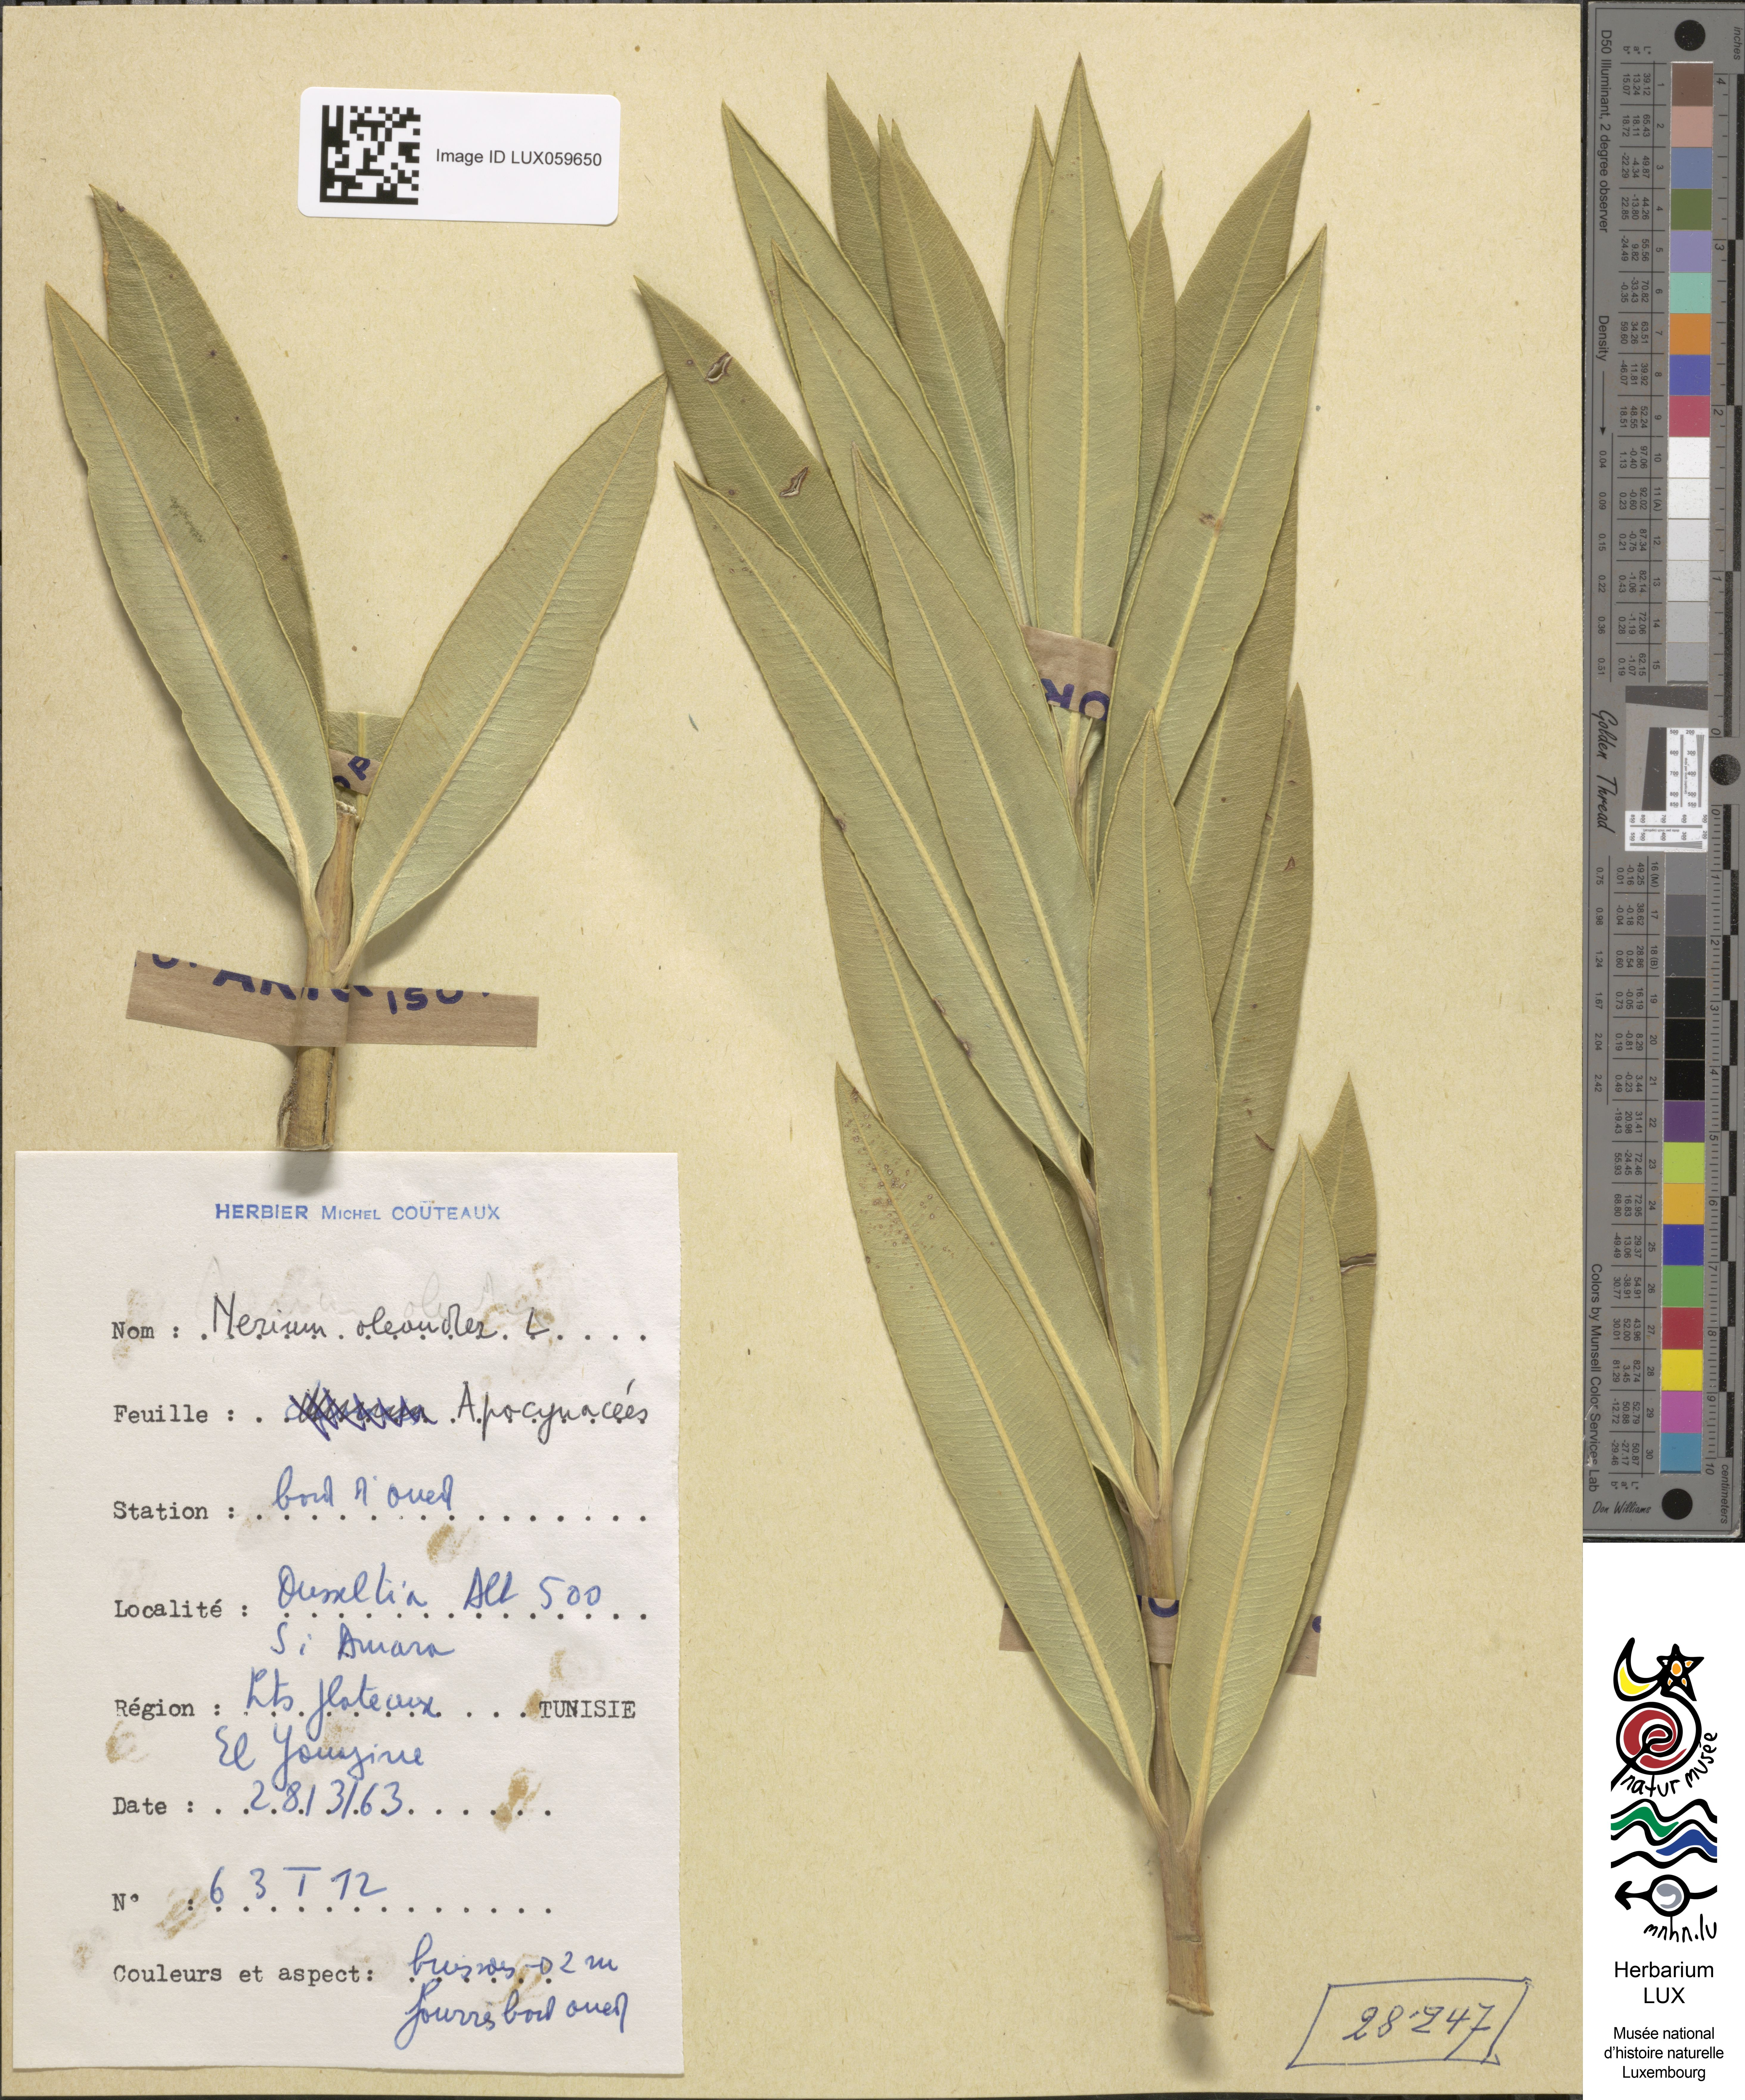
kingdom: Plantae
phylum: Tracheophyta
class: Magnoliopsida
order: Gentianales
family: Apocynaceae
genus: Nerium
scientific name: Nerium oleander
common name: Oleander
